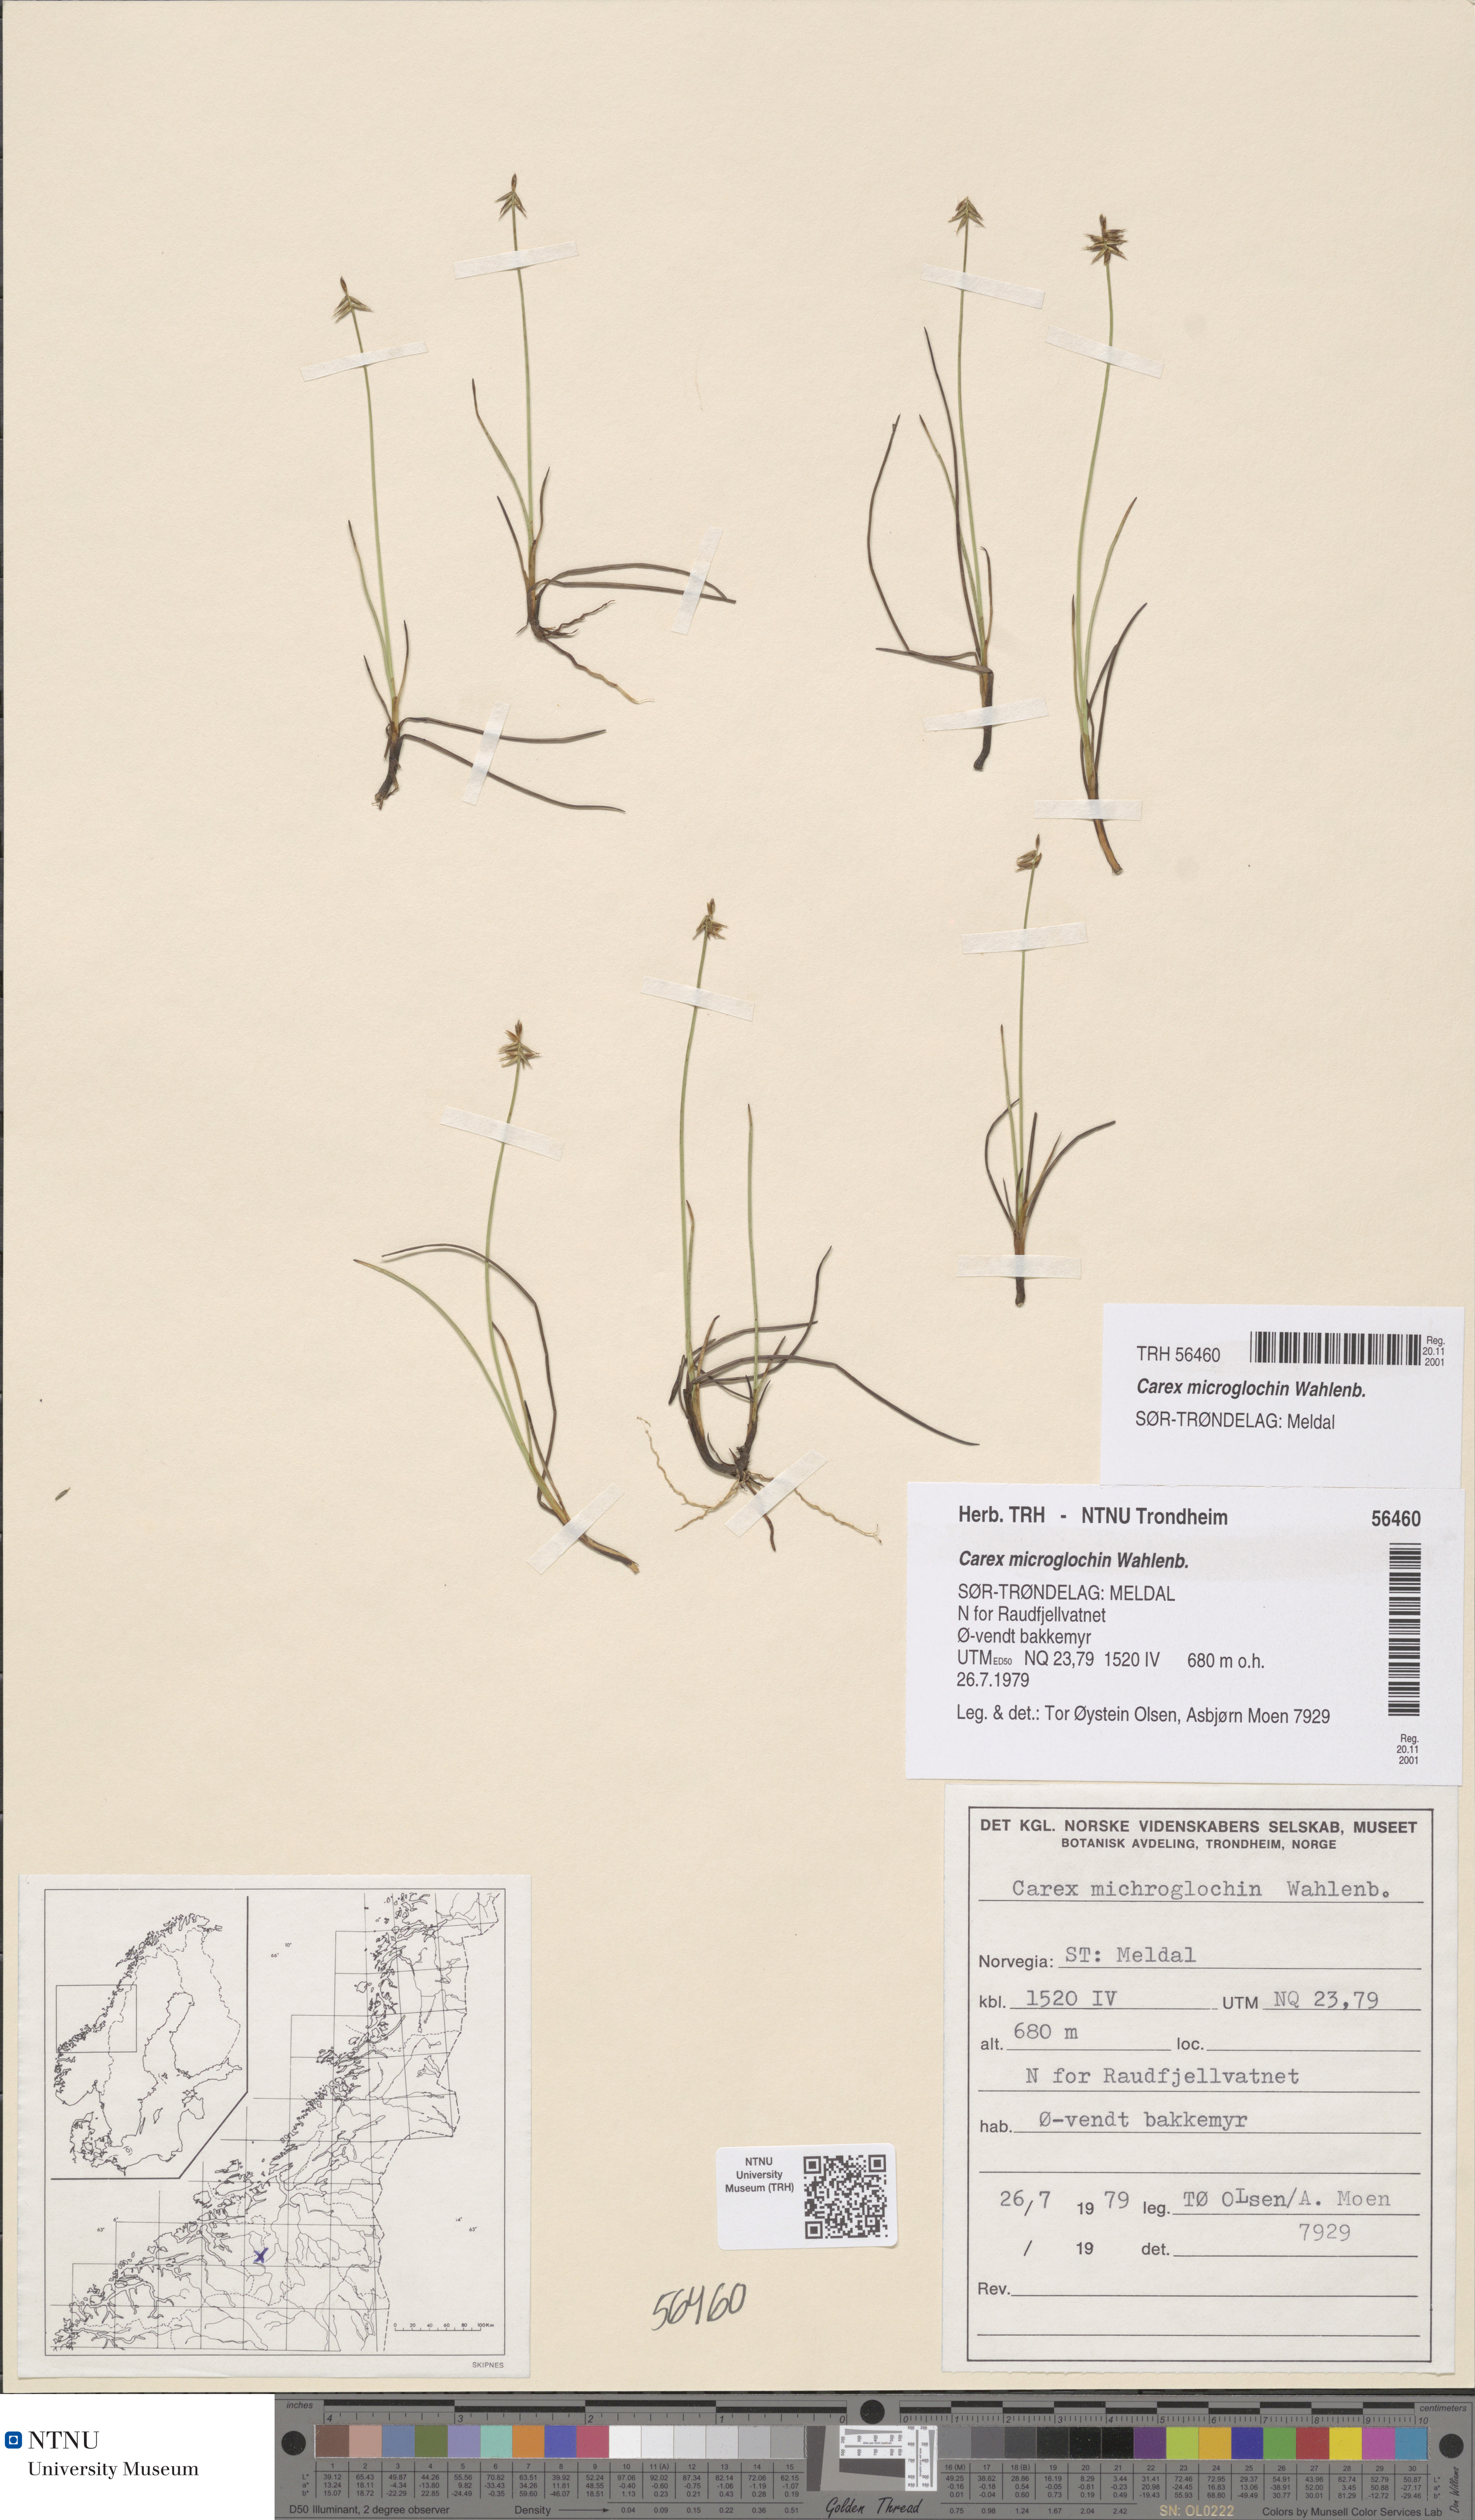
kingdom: Plantae
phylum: Tracheophyta
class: Liliopsida
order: Poales
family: Cyperaceae
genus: Carex
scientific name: Carex microglochin
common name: Bristle sedge
